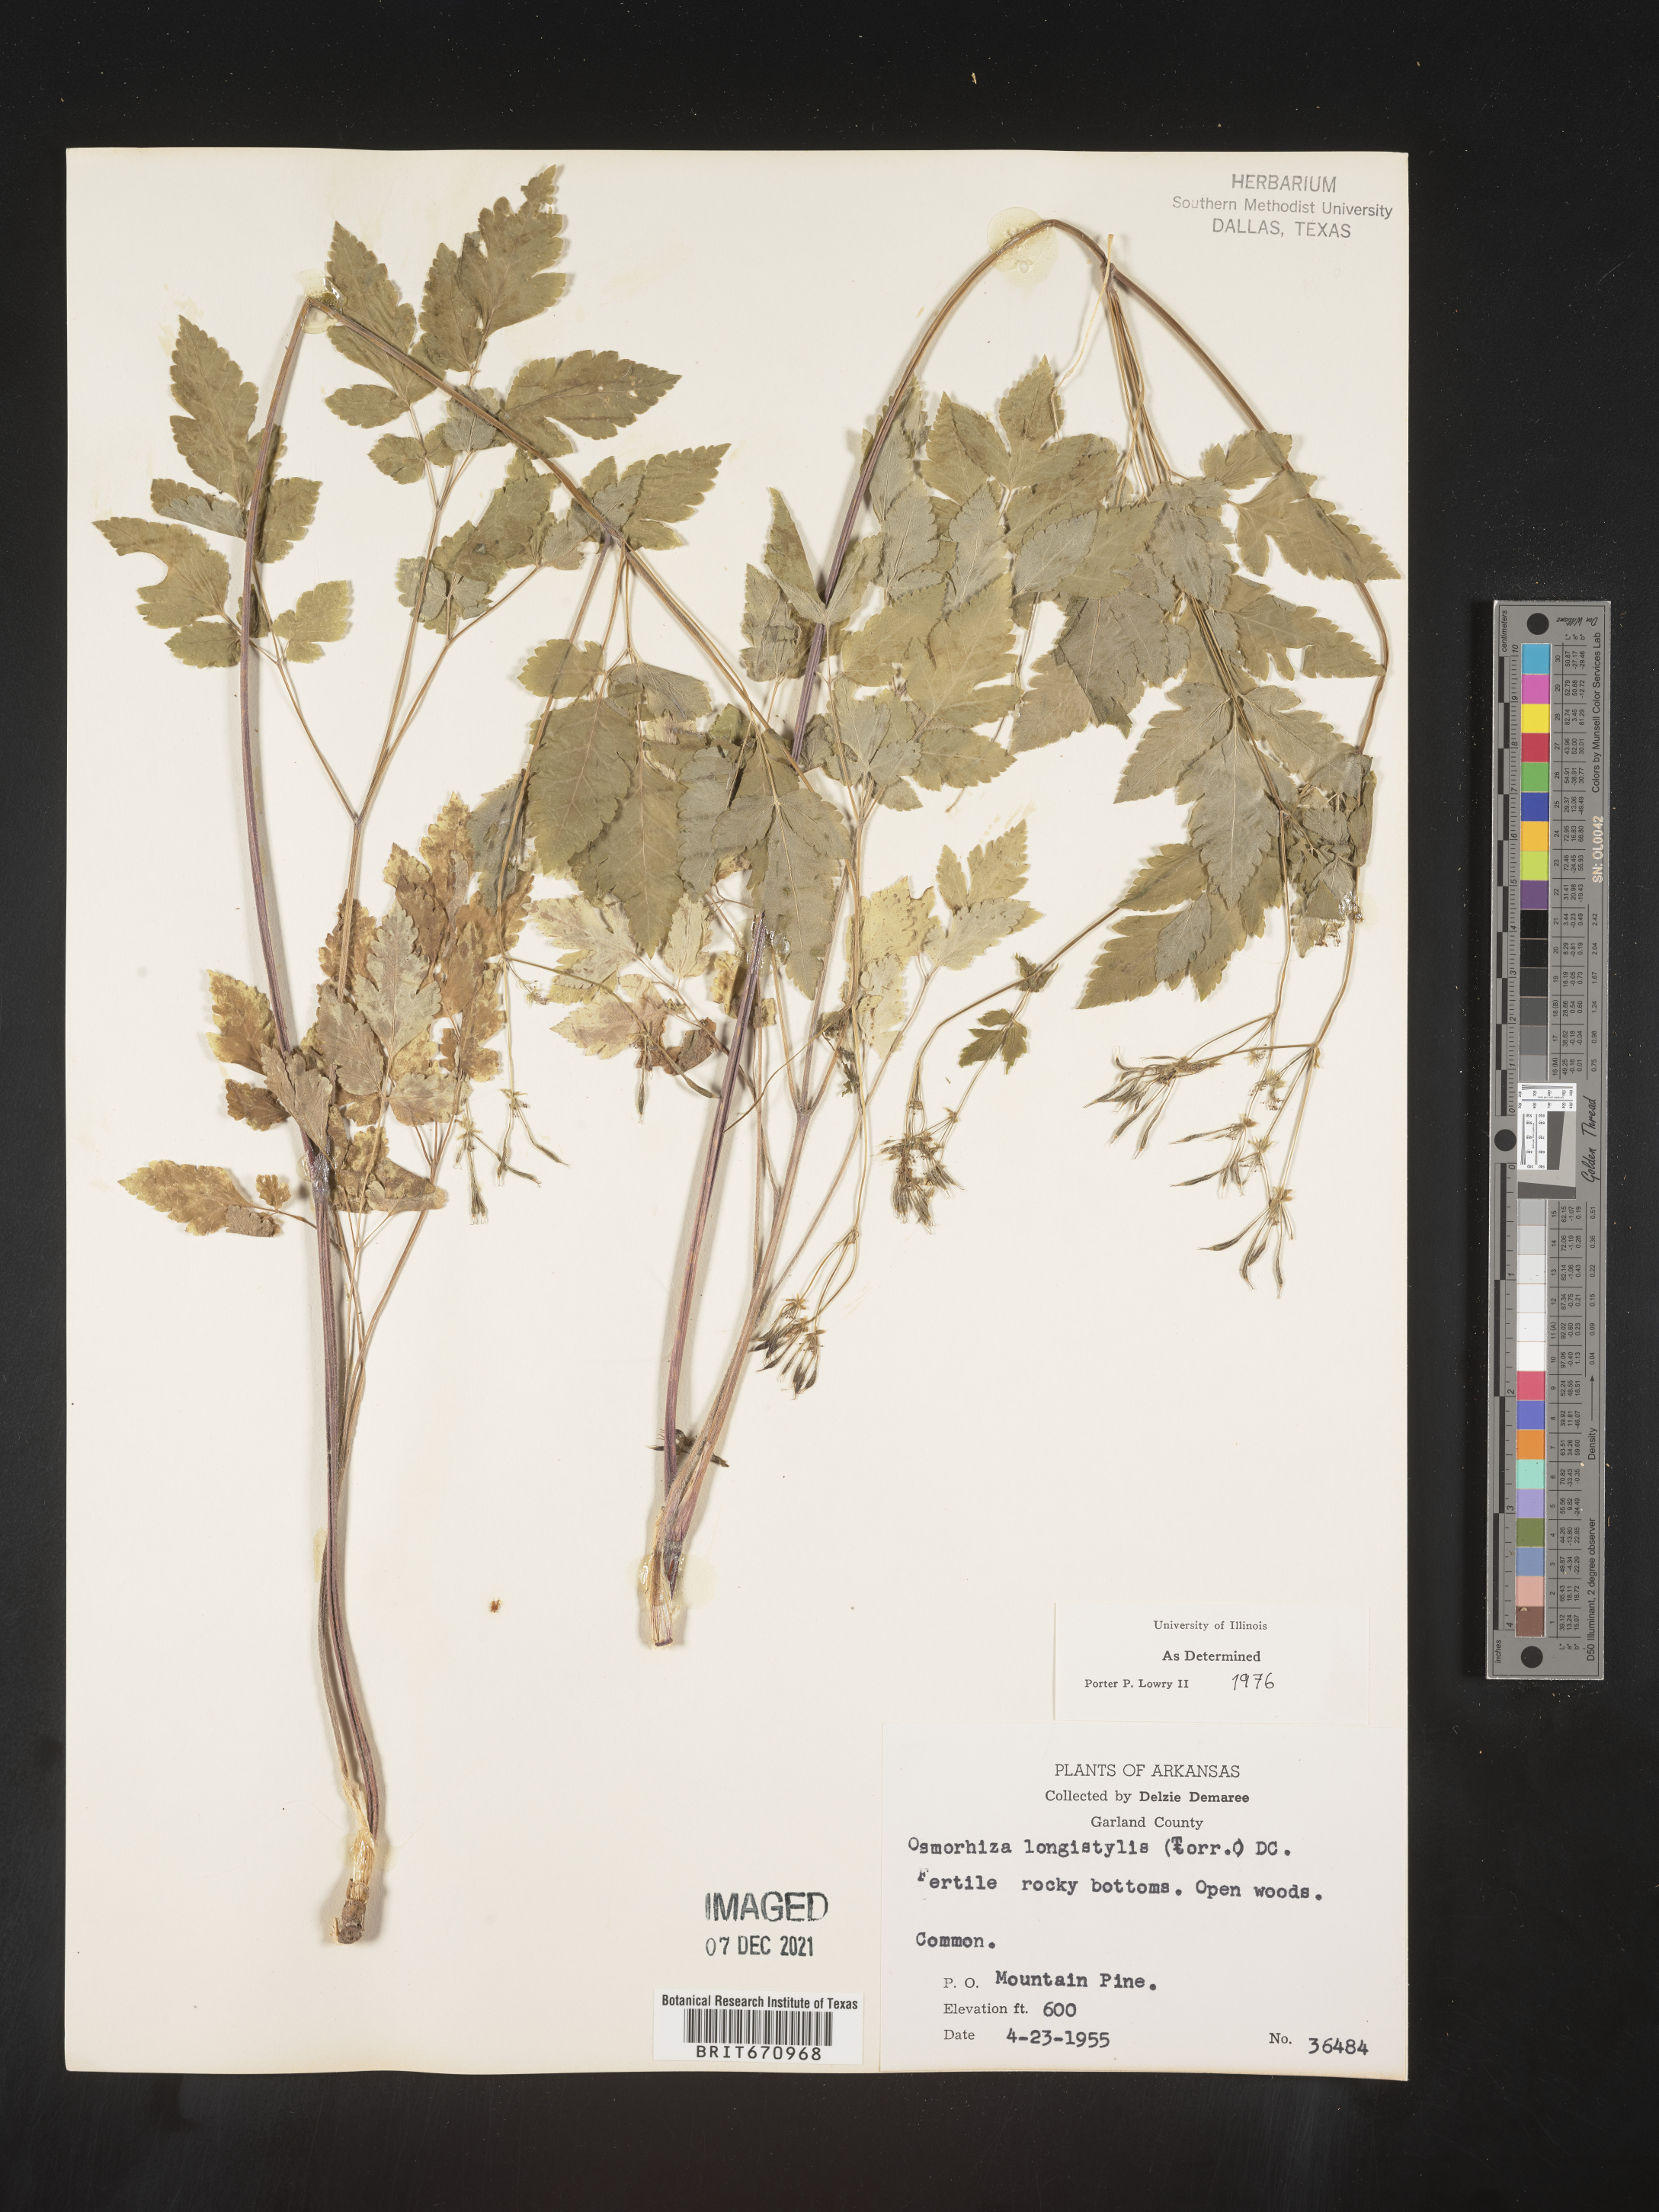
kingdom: Plantae
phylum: Tracheophyta
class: Magnoliopsida
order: Apiales
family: Apiaceae
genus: Osmorhiza
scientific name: Osmorhiza longistylis
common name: Smooth sweet cicely
